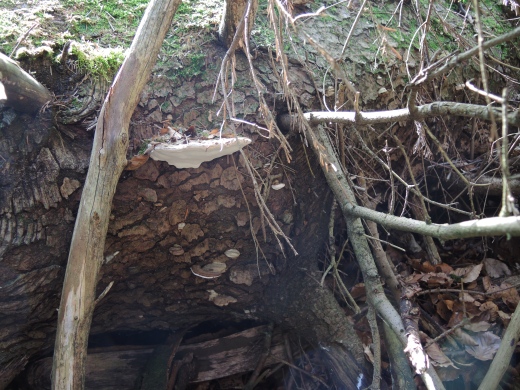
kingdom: Fungi
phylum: Basidiomycota
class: Agaricomycetes
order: Polyporales
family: Polyporaceae
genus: Ganoderma
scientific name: Ganoderma applanatum
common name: flad lakporesvamp
